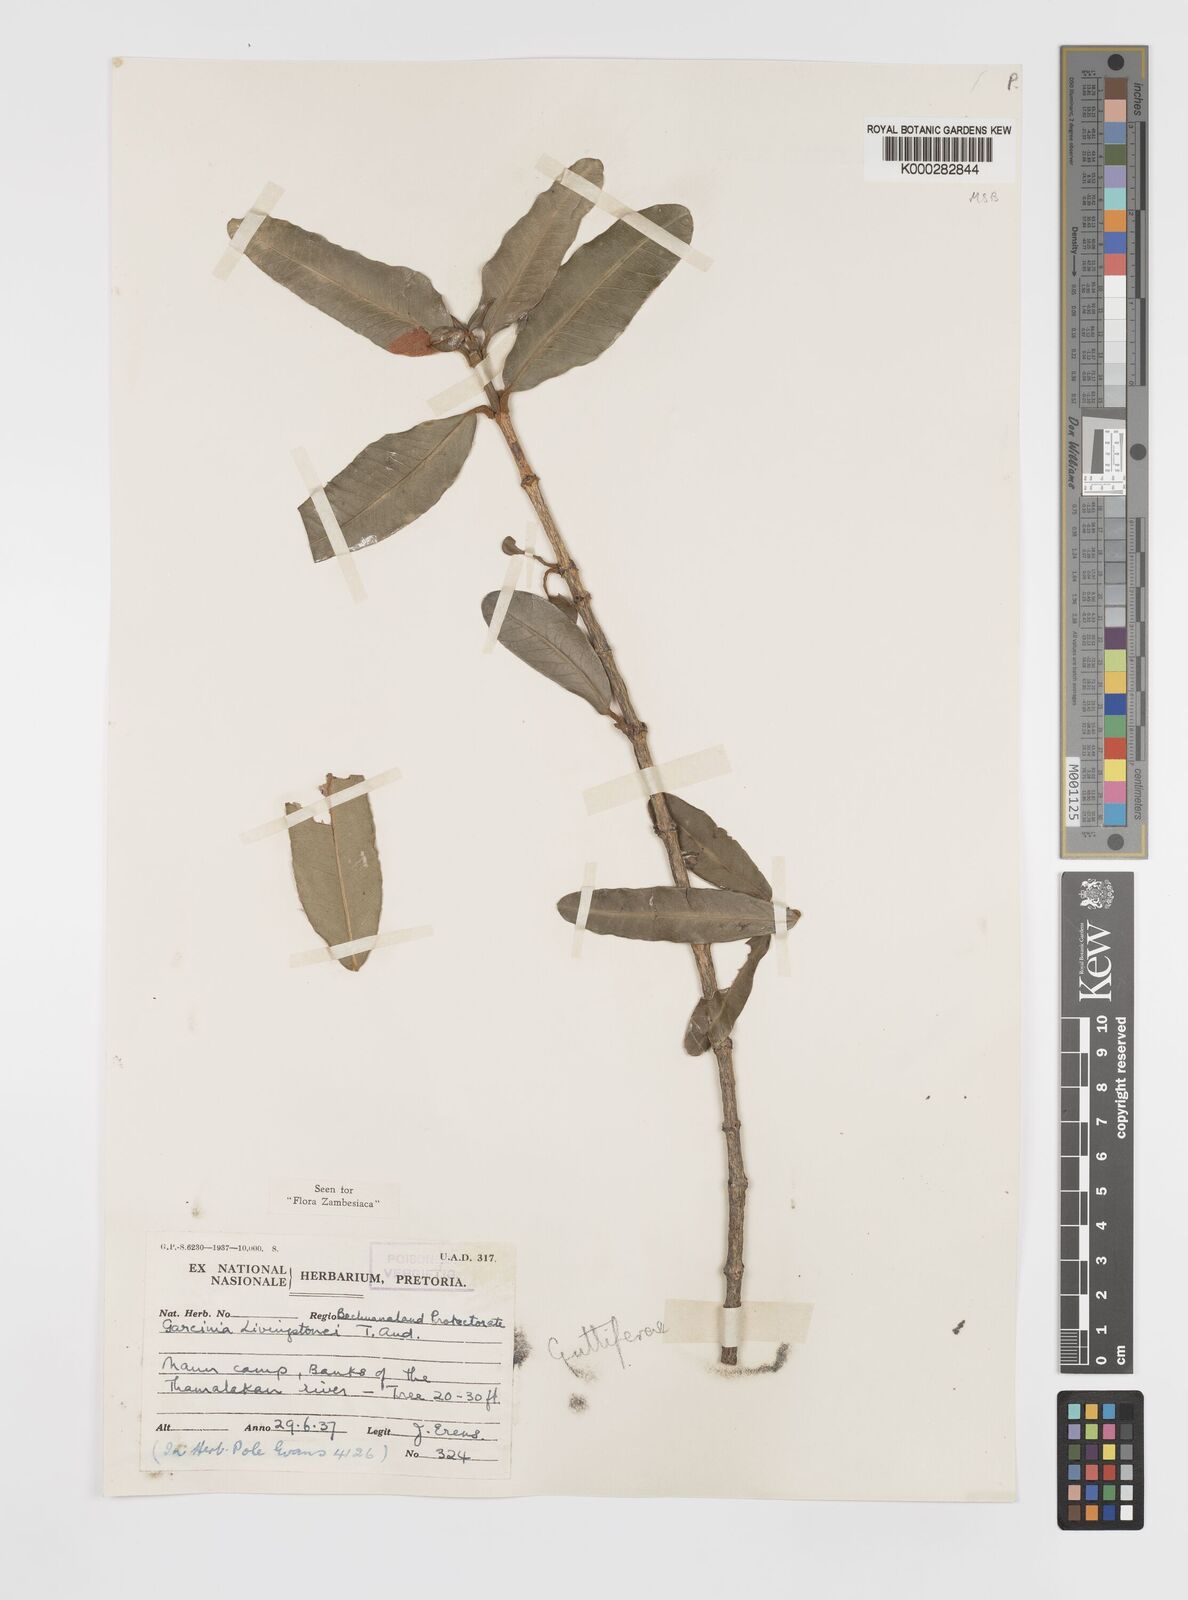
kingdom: Plantae
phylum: Tracheophyta
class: Magnoliopsida
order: Malpighiales
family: Clusiaceae
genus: Garcinia
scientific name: Garcinia livingstonei
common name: African mangosteen
